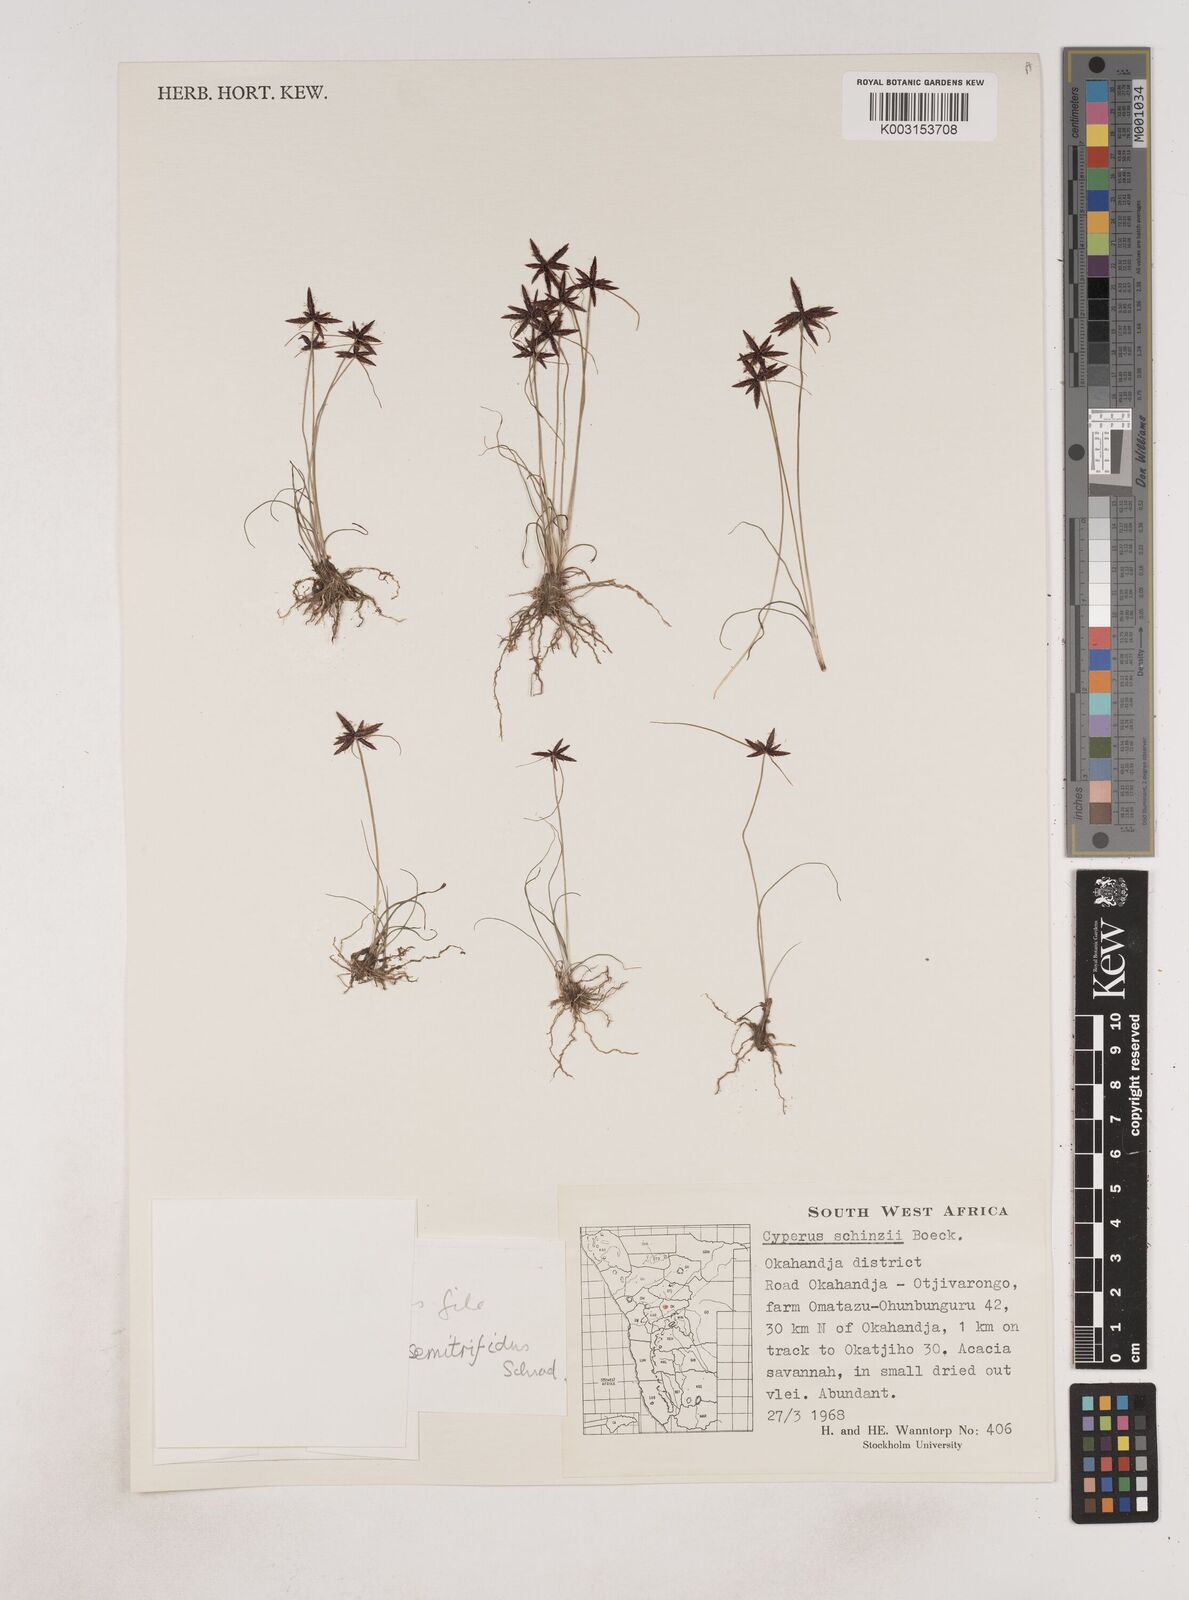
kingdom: Plantae
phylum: Tracheophyta
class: Liliopsida
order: Poales
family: Cyperaceae
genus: Cyperus
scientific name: Cyperus semitrifidus
